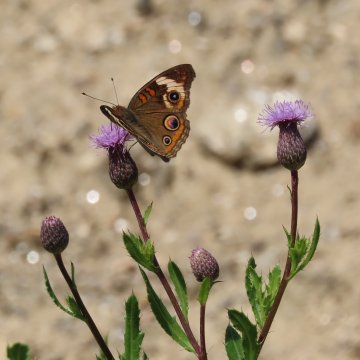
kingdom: Animalia
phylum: Arthropoda
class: Insecta
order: Lepidoptera
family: Nymphalidae
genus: Junonia
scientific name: Junonia coenia
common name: Common Buckeye
